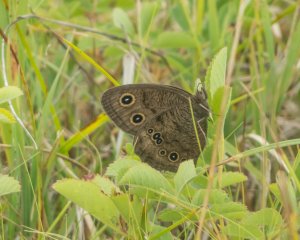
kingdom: Animalia
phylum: Arthropoda
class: Insecta
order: Lepidoptera
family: Nymphalidae
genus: Cercyonis
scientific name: Cercyonis pegala
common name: Common Wood-Nymph
